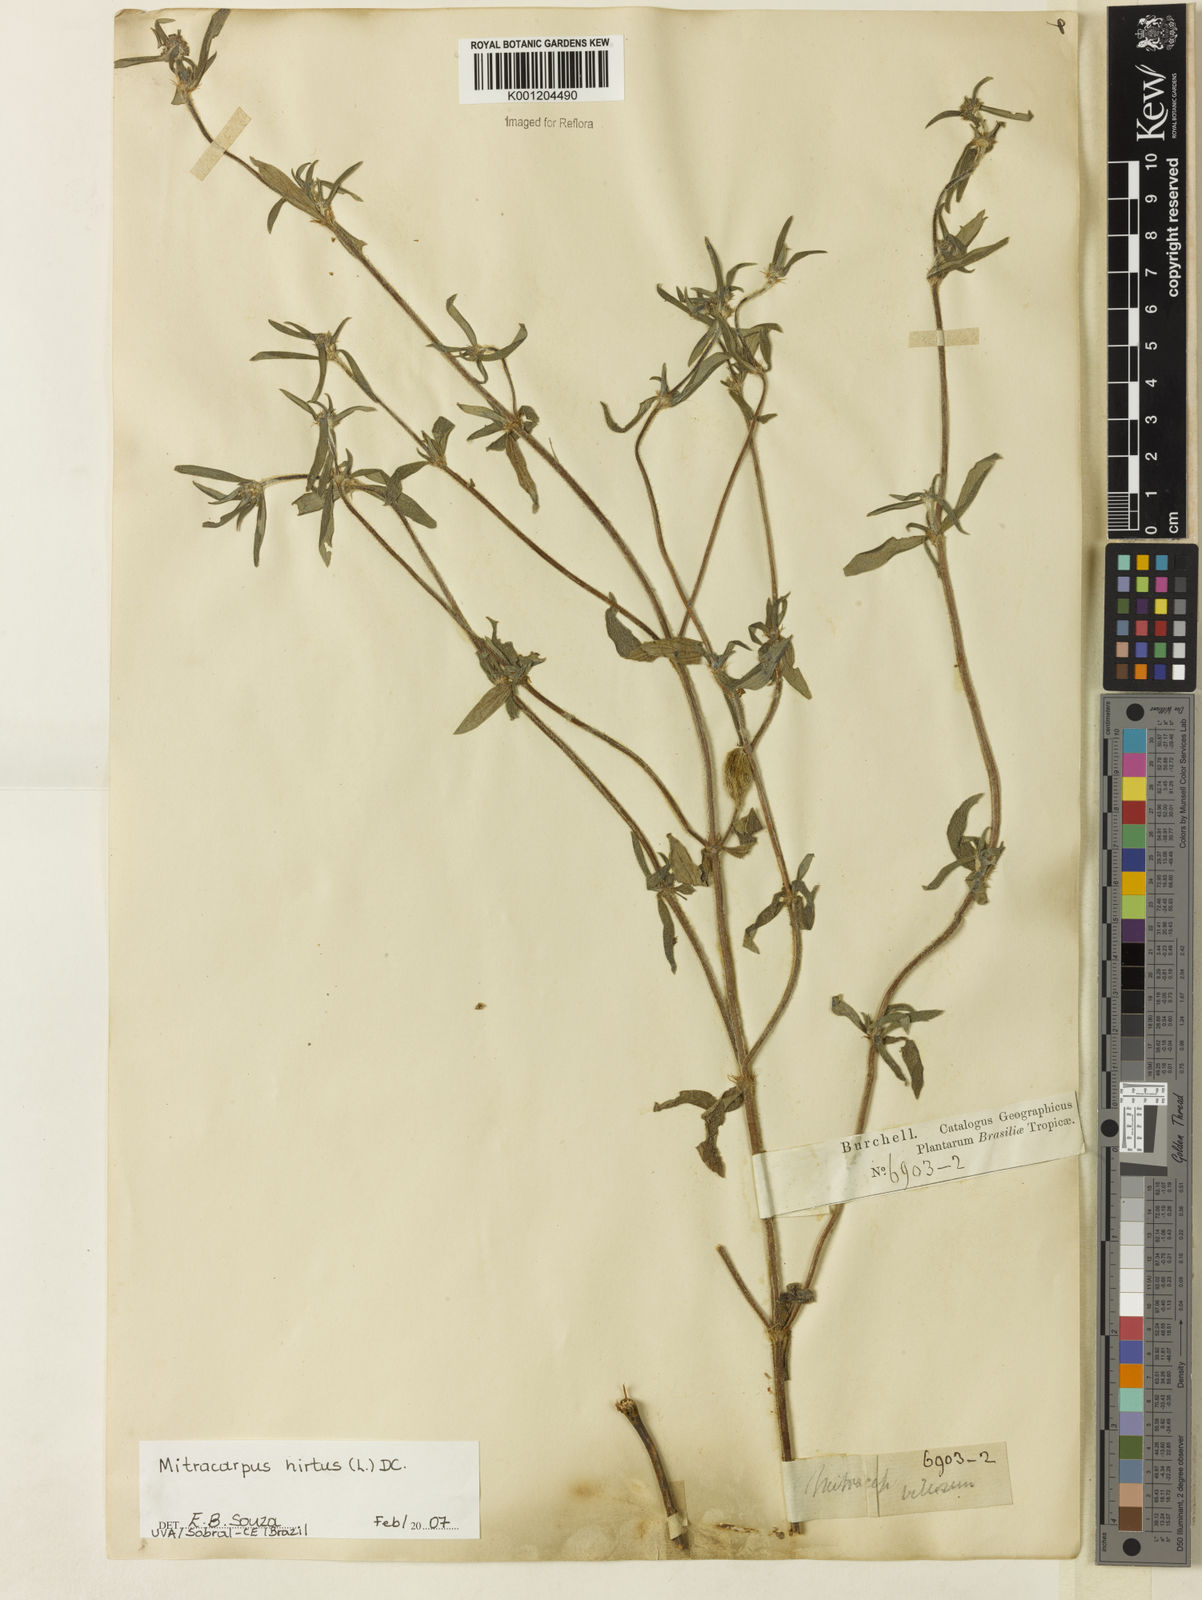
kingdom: Plantae
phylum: Tracheophyta
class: Magnoliopsida
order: Gentianales
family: Rubiaceae
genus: Mitracarpus
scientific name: Mitracarpus hirtus
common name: Tropical girdlepod
